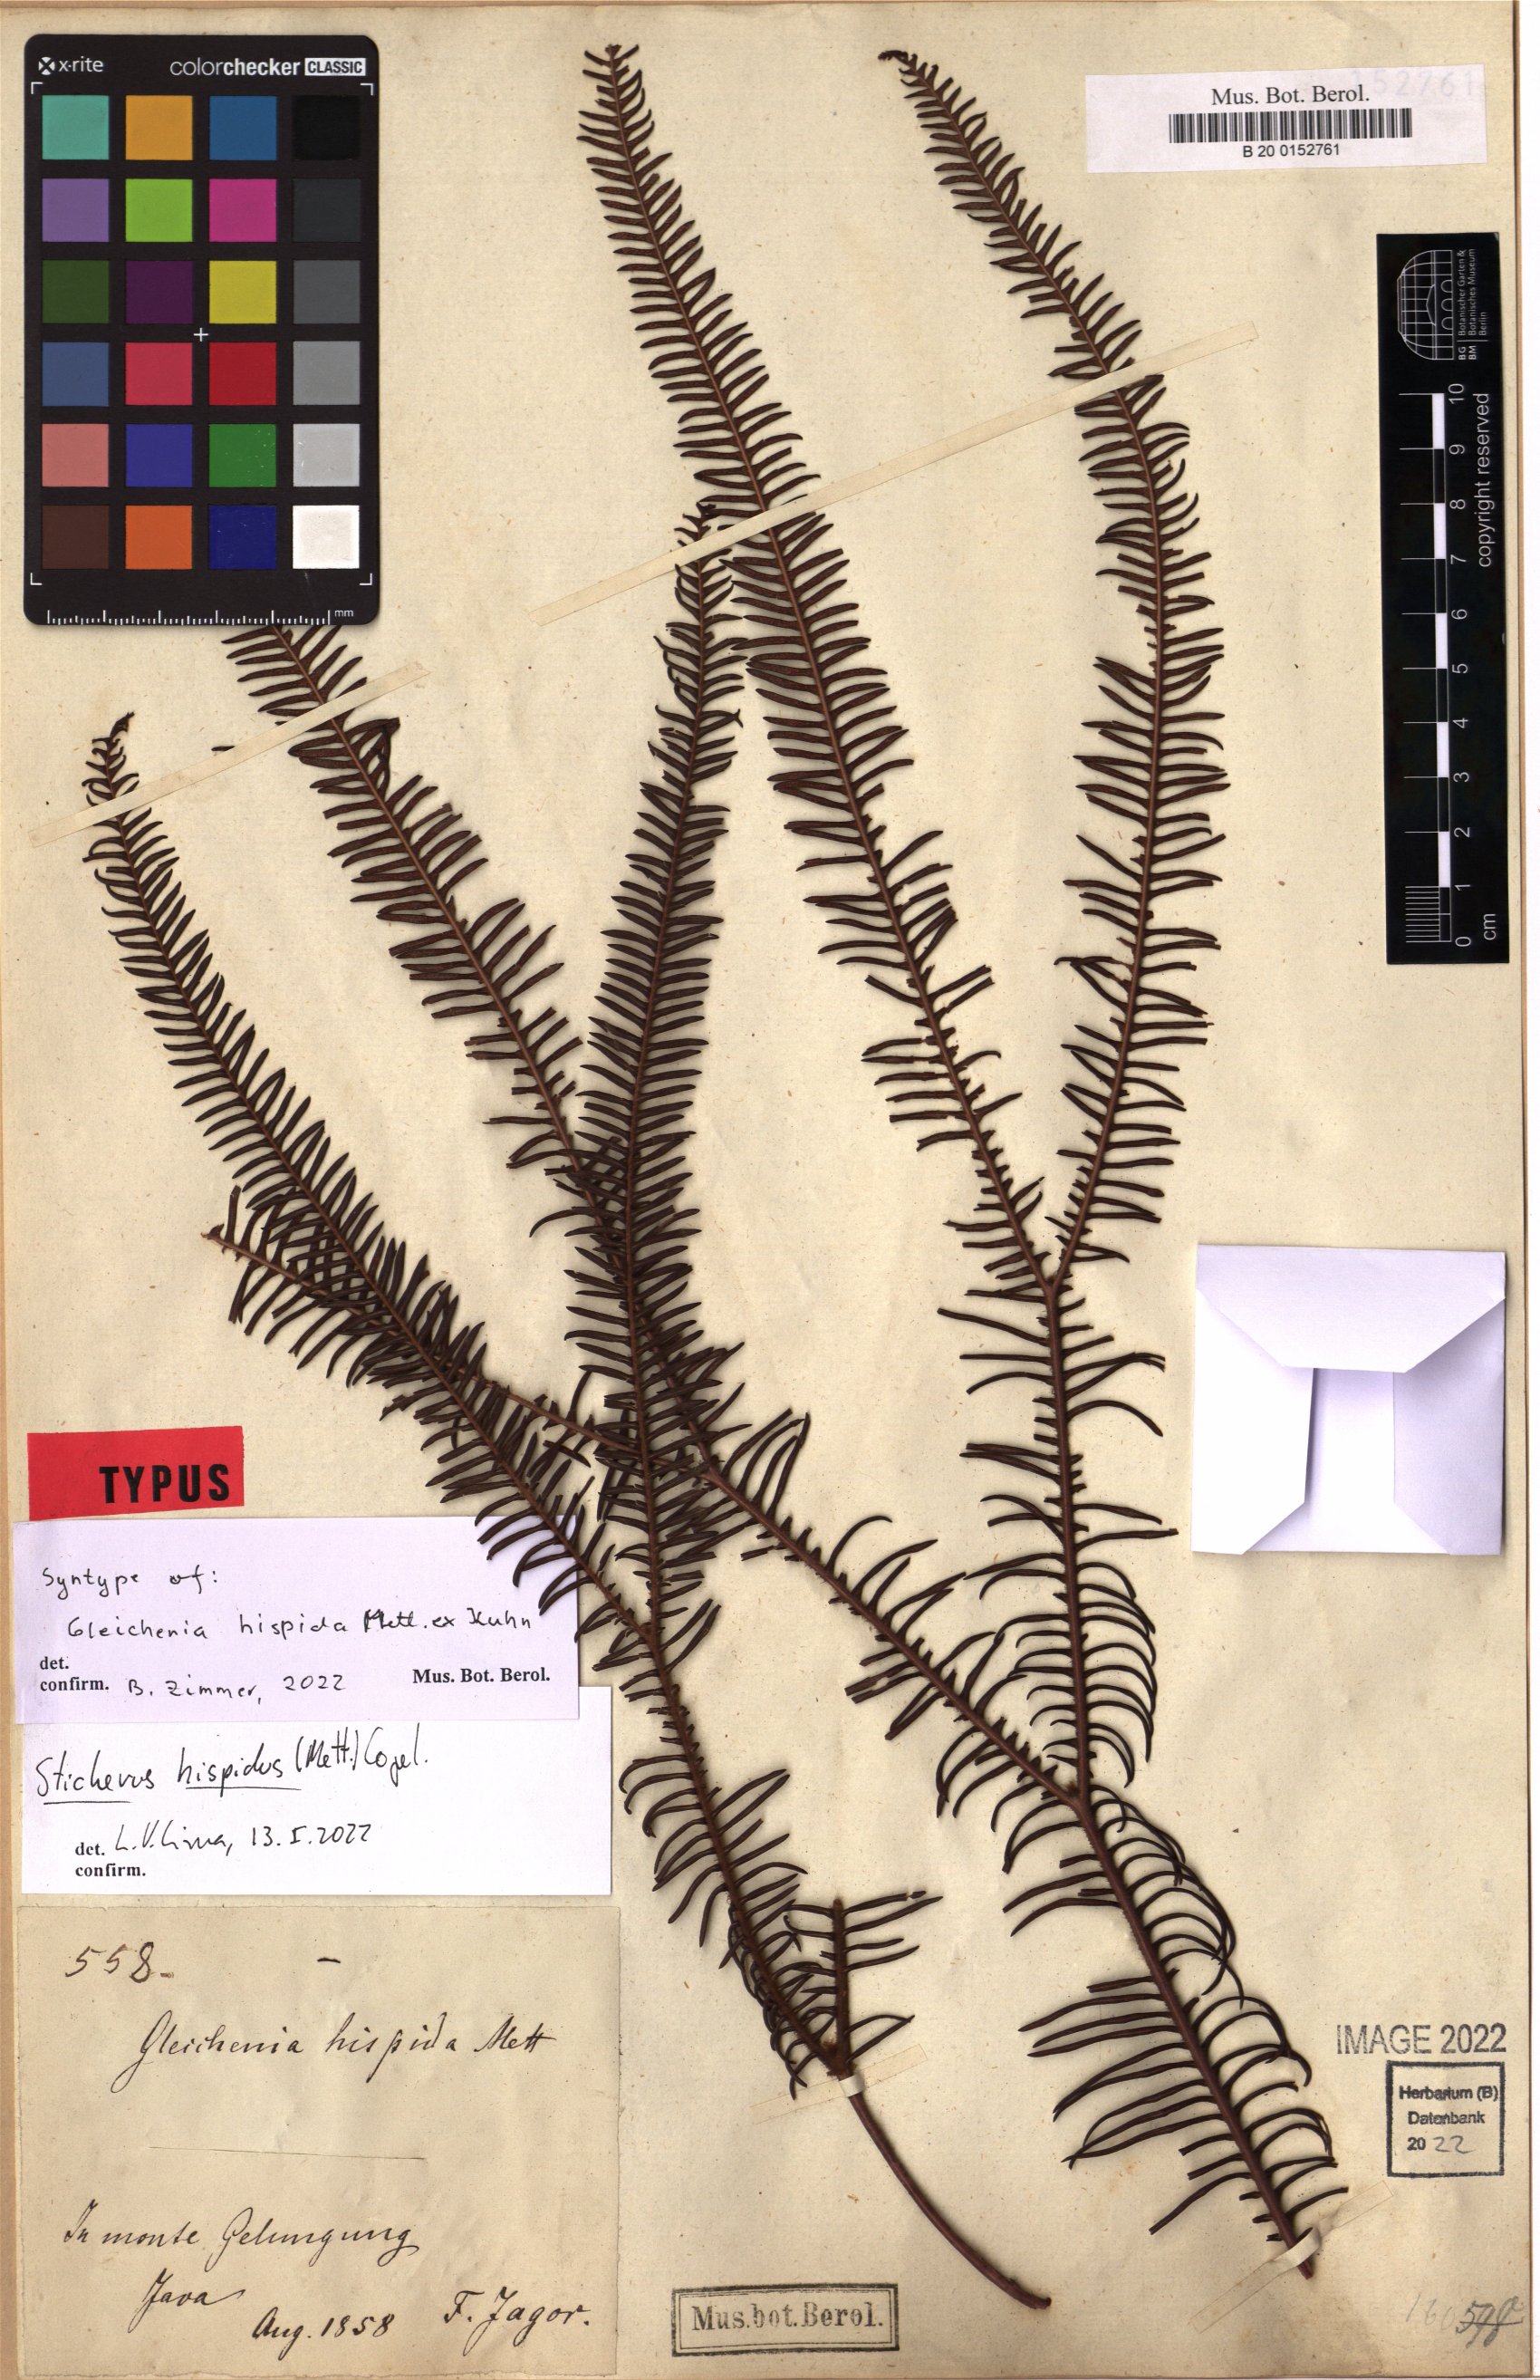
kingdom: Plantae
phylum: Tracheophyta
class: Polypodiopsida
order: Gleicheniales
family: Gleicheniaceae
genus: Sticherus
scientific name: Sticherus hispidus
